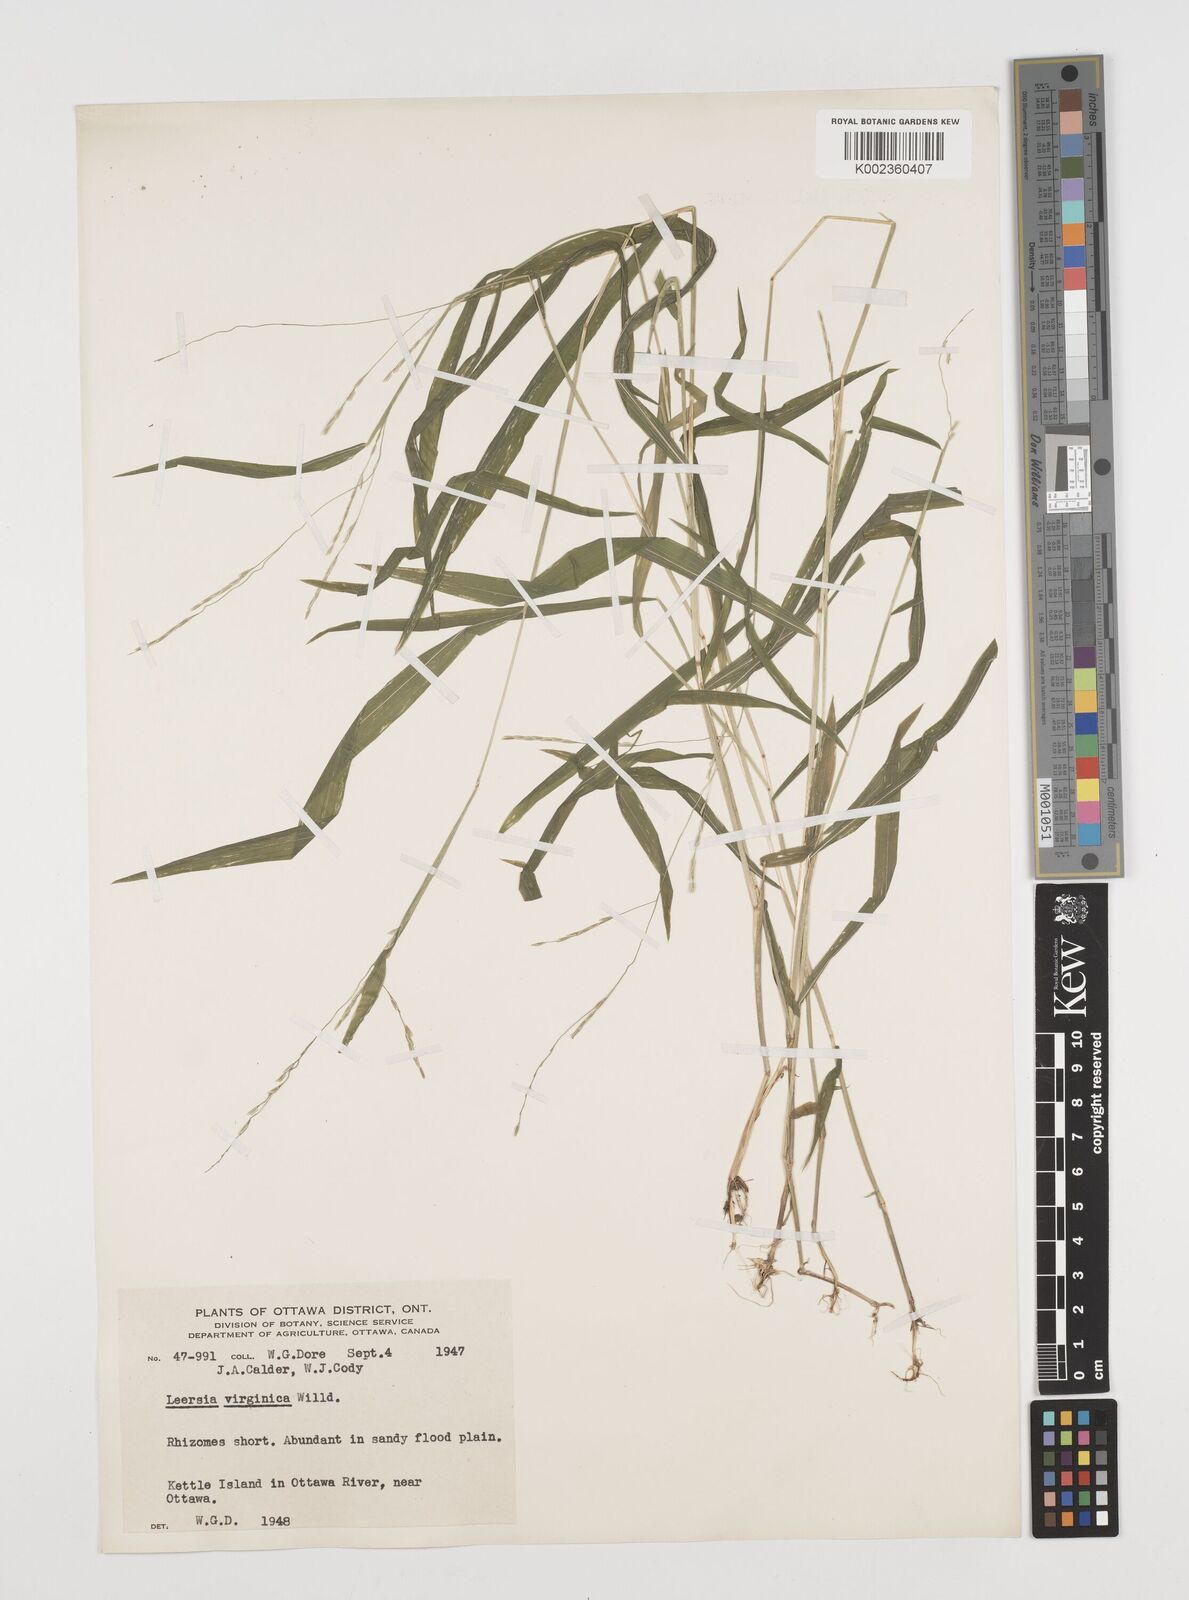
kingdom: Plantae
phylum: Tracheophyta
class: Liliopsida
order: Poales
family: Poaceae
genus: Leersia
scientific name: Leersia virginica
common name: White cutgrass
